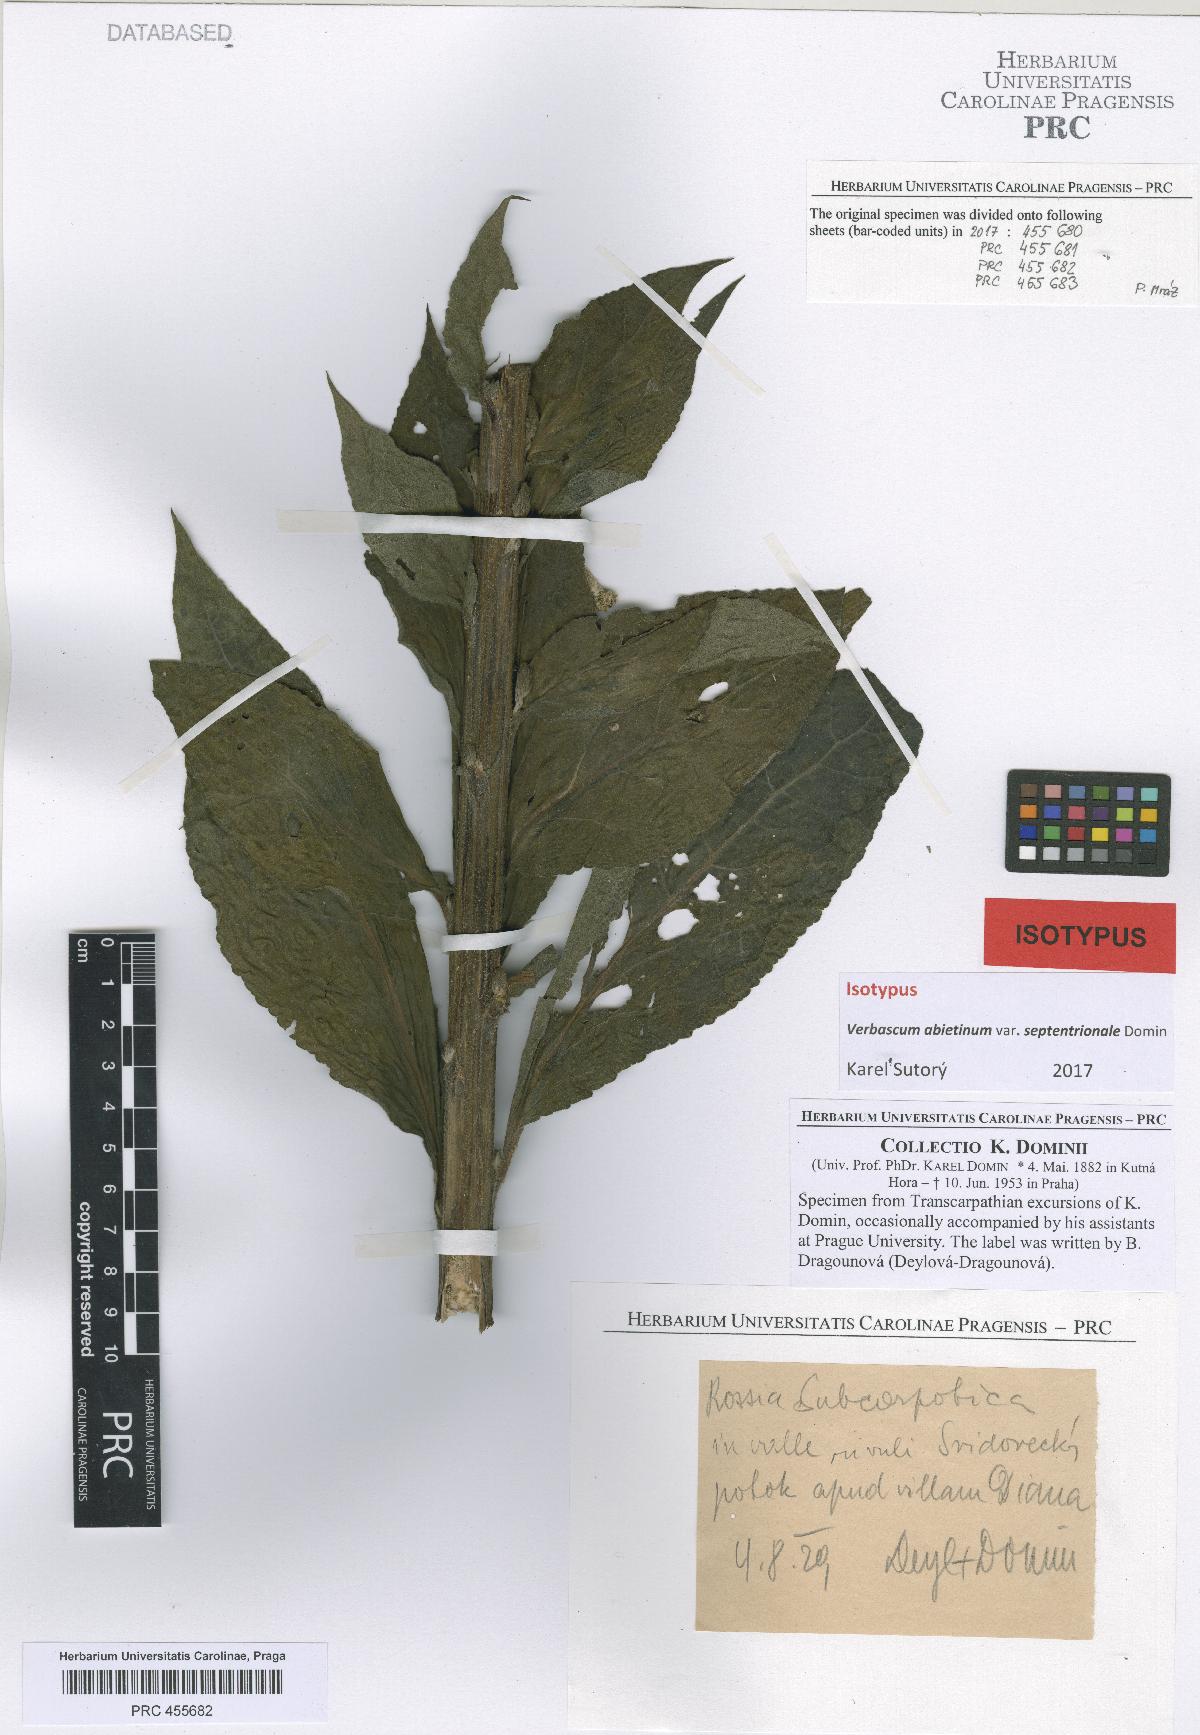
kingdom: Plantae
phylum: Tracheophyta
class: Magnoliopsida
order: Lamiales
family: Scrophulariaceae
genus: Verbascum
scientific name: Verbascum nigrum
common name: Dark mullein
